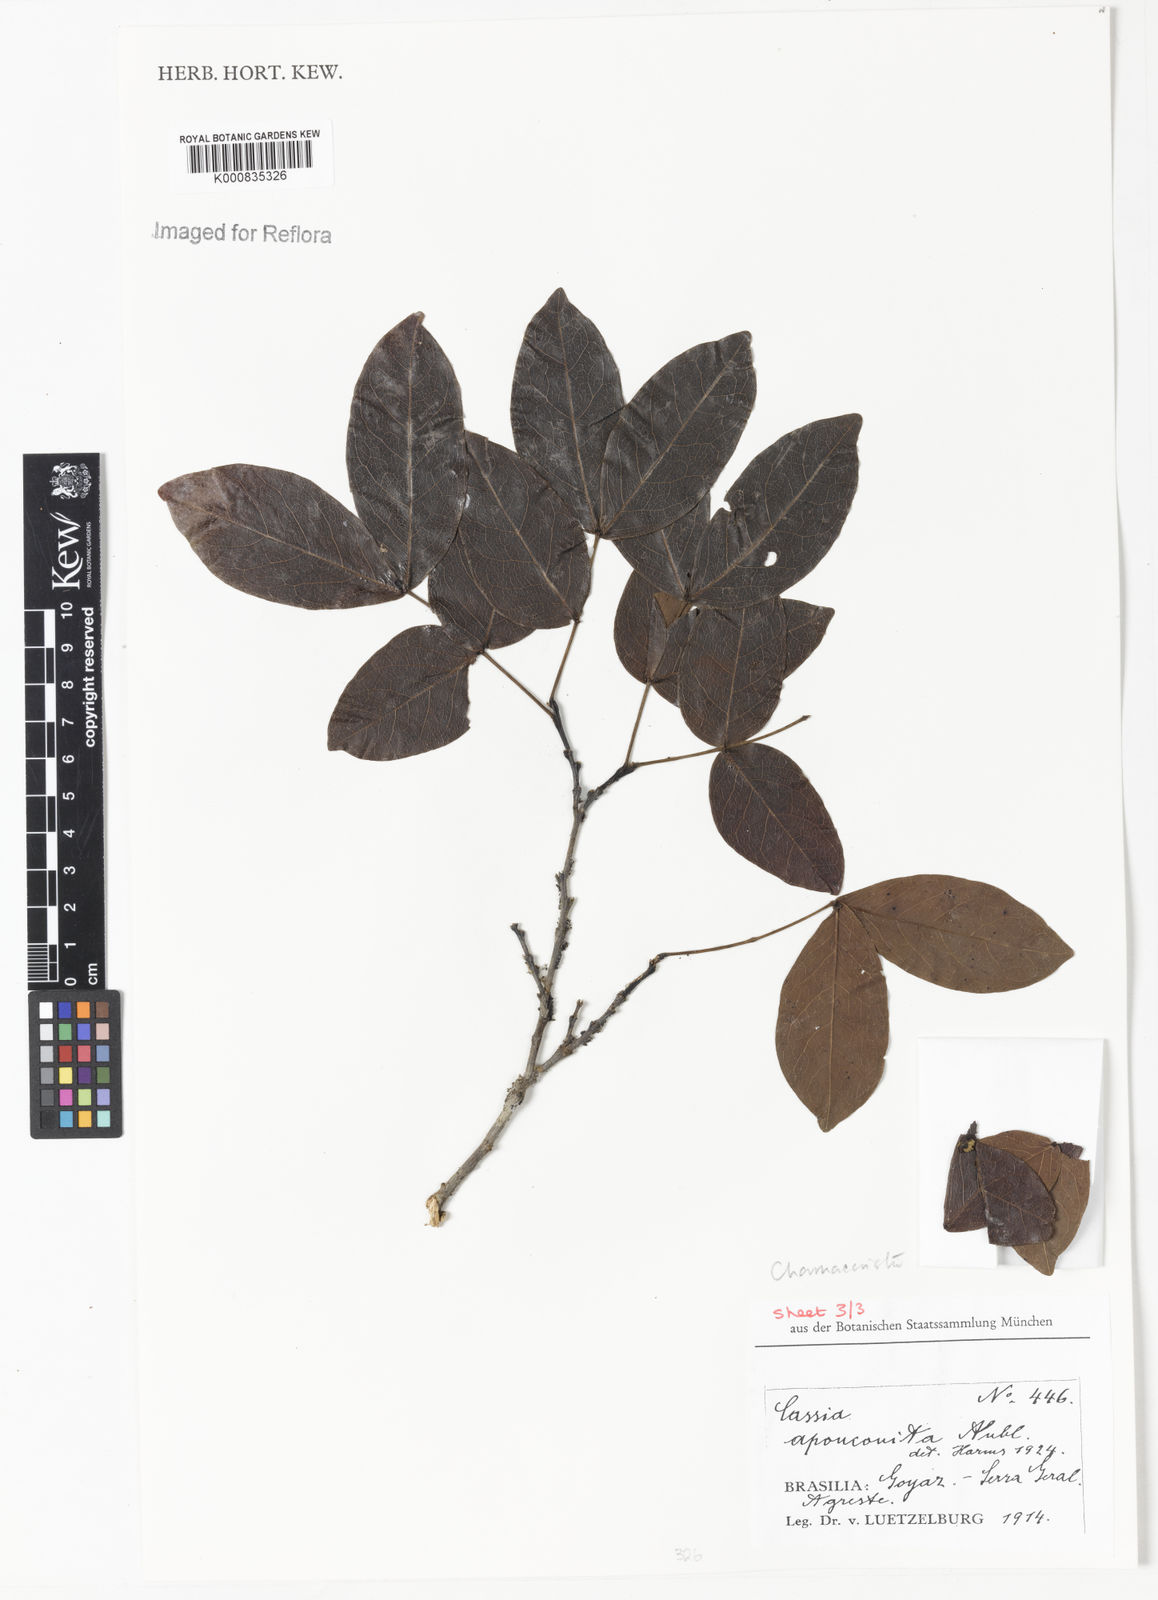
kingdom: Plantae
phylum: Tracheophyta
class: Magnoliopsida
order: Fabales
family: Fabaceae
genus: Chamaecrista
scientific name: Chamaecrista apoucouita
